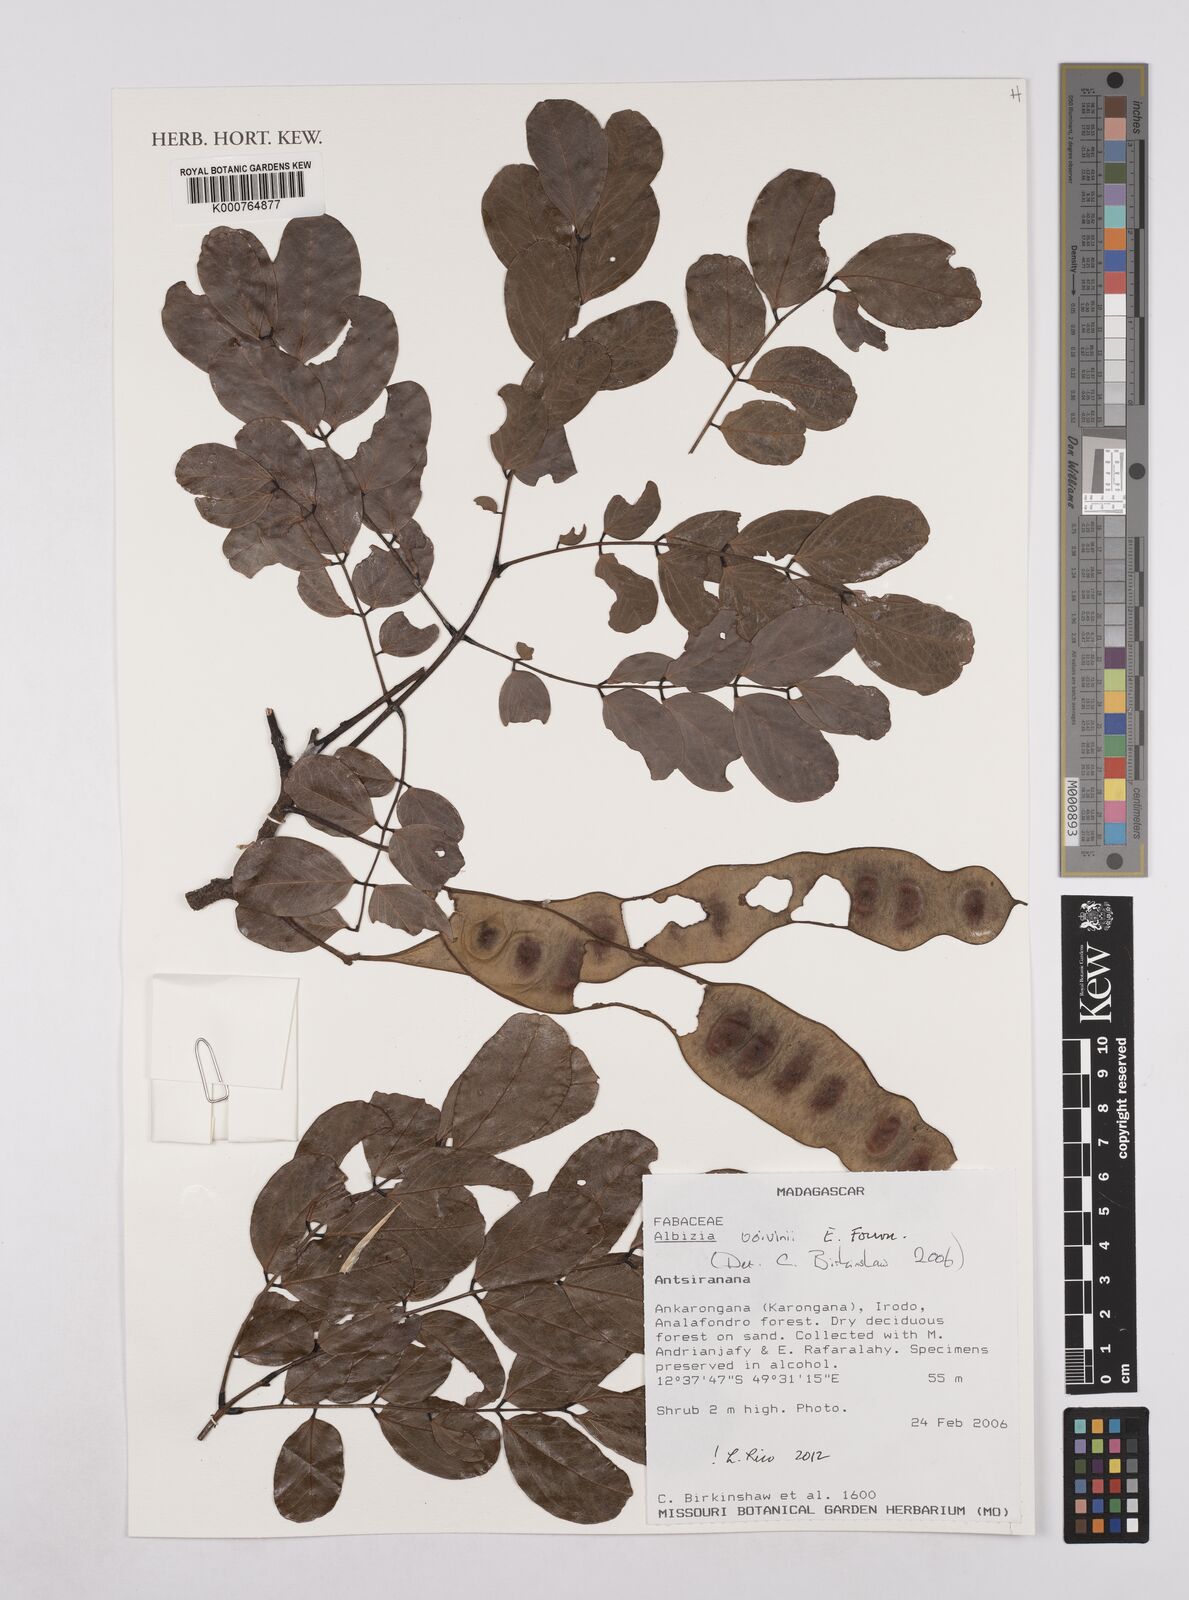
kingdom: Plantae
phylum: Tracheophyta
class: Magnoliopsida
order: Fabales
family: Fabaceae
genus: Albizia
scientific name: Albizia boivinii
